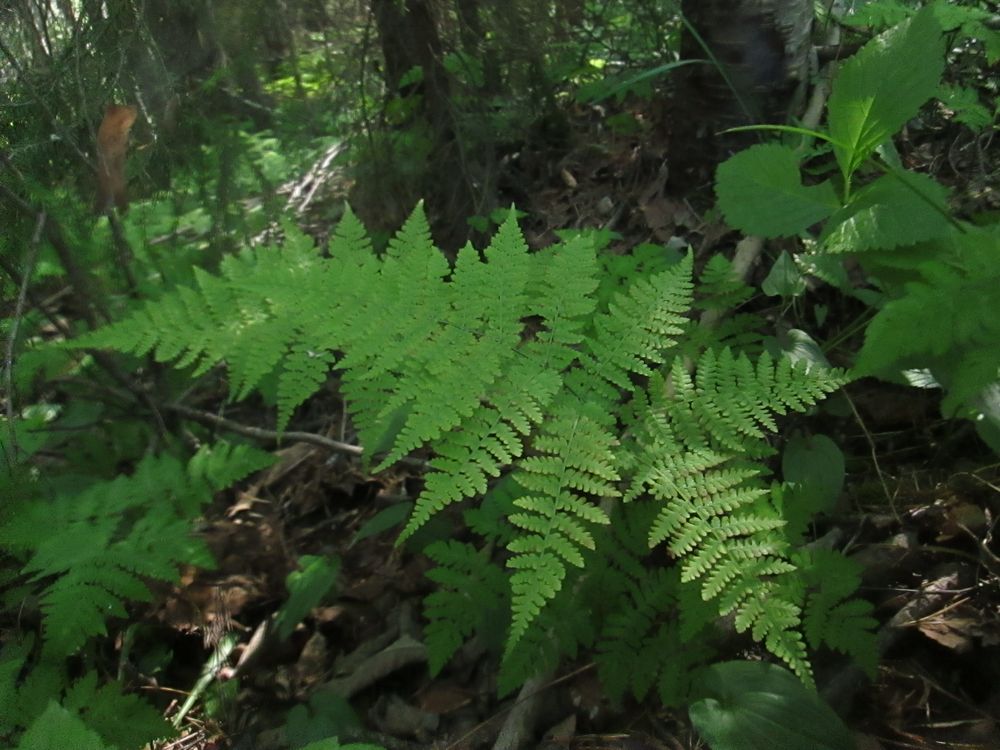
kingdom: Plantae
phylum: Tracheophyta
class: Polypodiopsida
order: Polypodiales
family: Athyriaceae
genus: Diplazium
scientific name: Diplazium sibiricum
